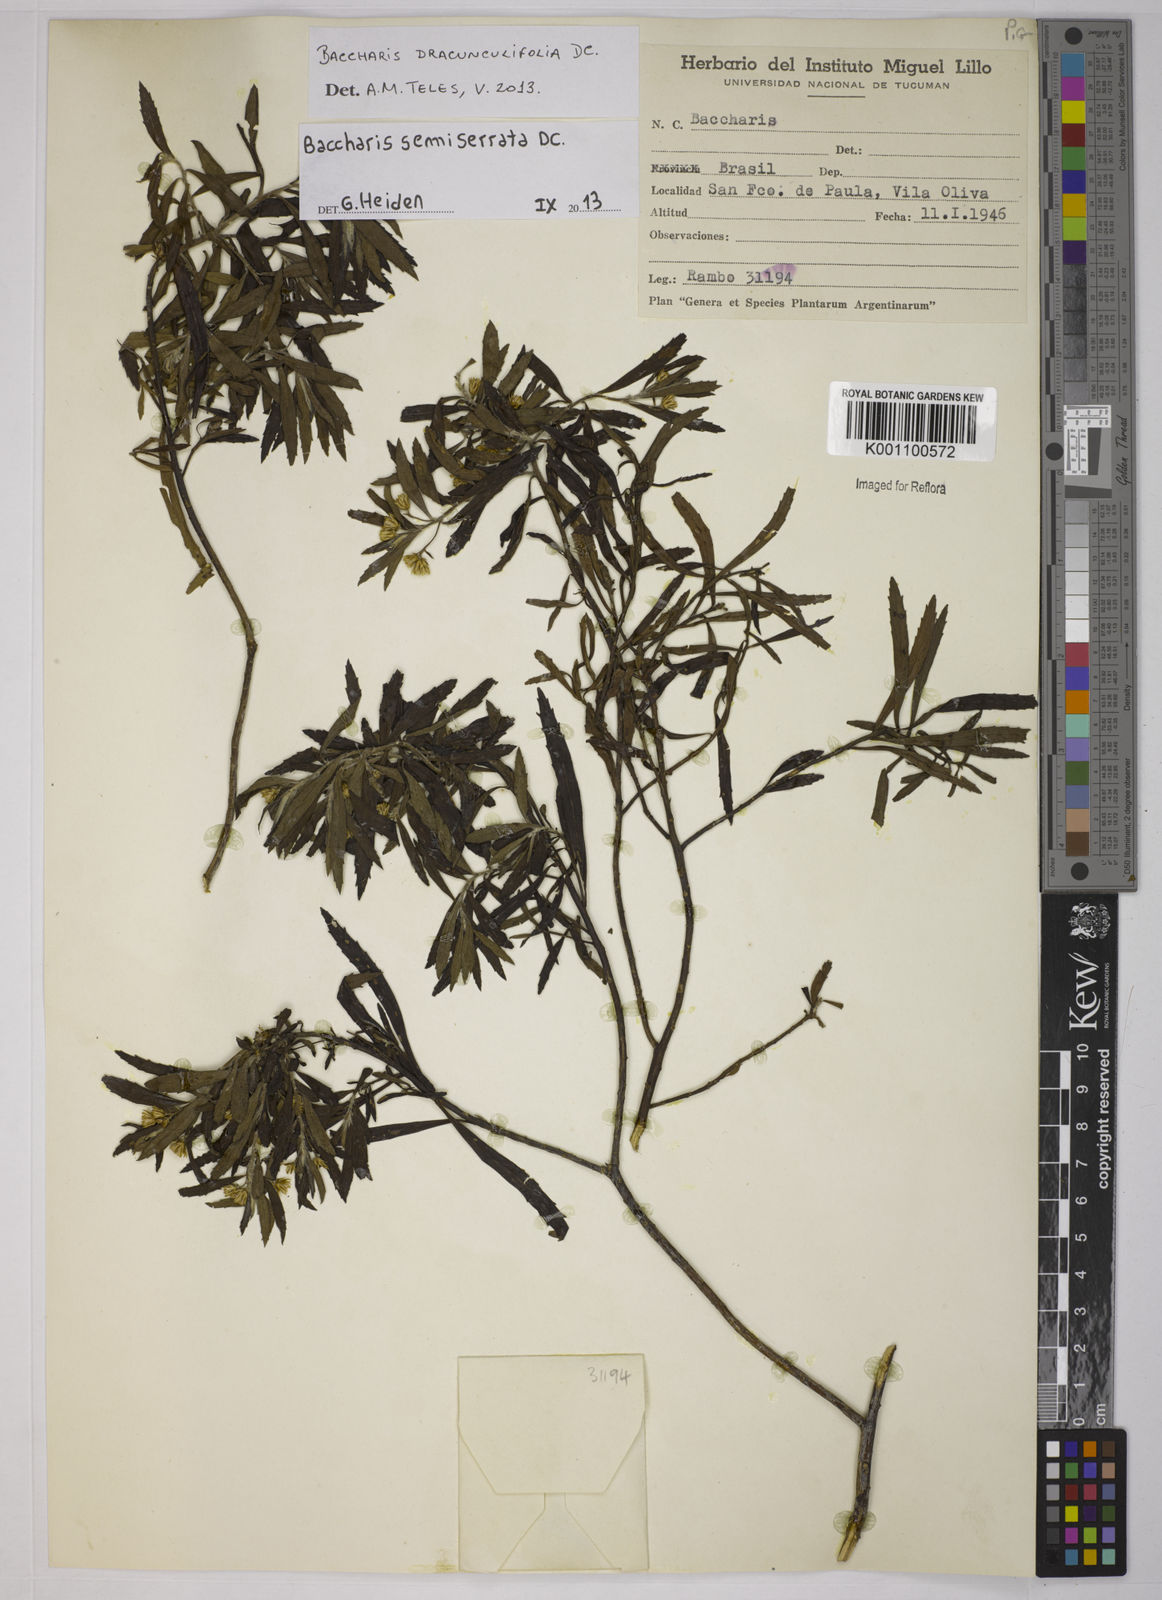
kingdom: Plantae
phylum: Tracheophyta
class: Magnoliopsida
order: Asterales
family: Asteraceae
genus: Baccharis
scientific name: Baccharis gnidiifolia
